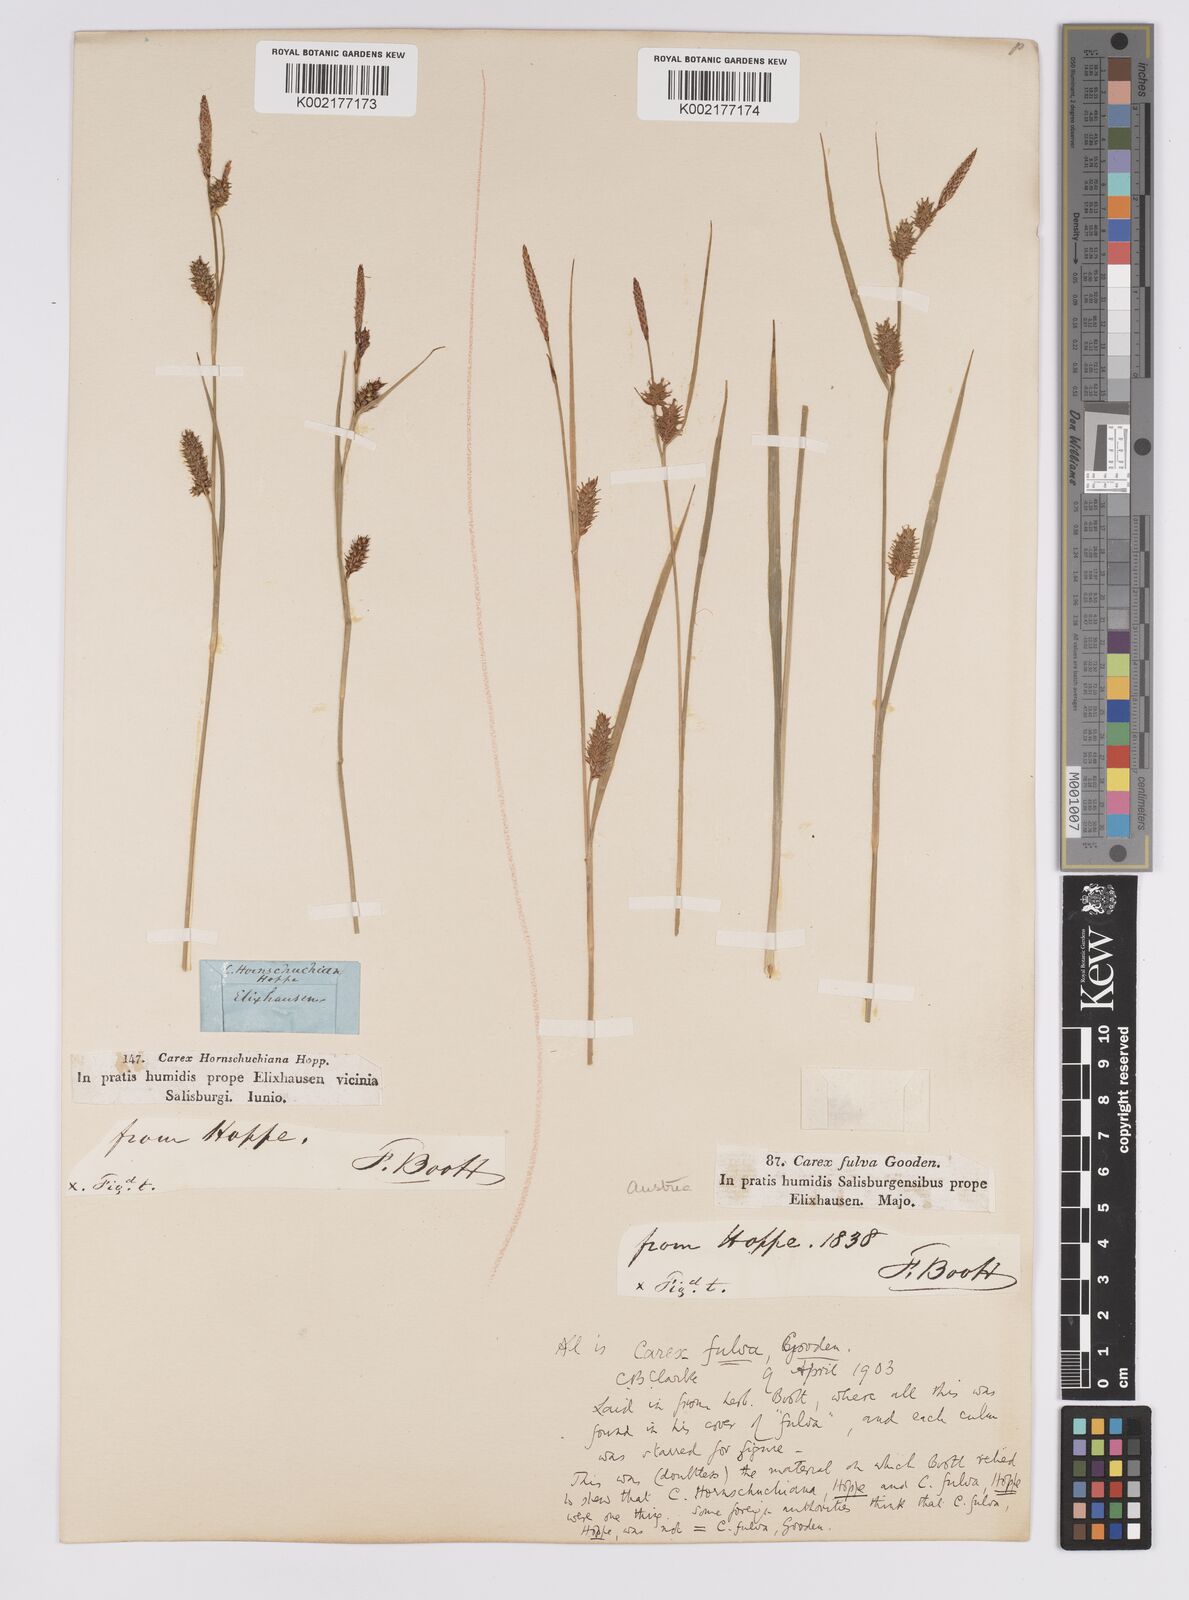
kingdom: Plantae
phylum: Tracheophyta
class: Liliopsida
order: Poales
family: Cyperaceae
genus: Carex
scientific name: Carex hostiana
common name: Tawny sedge
